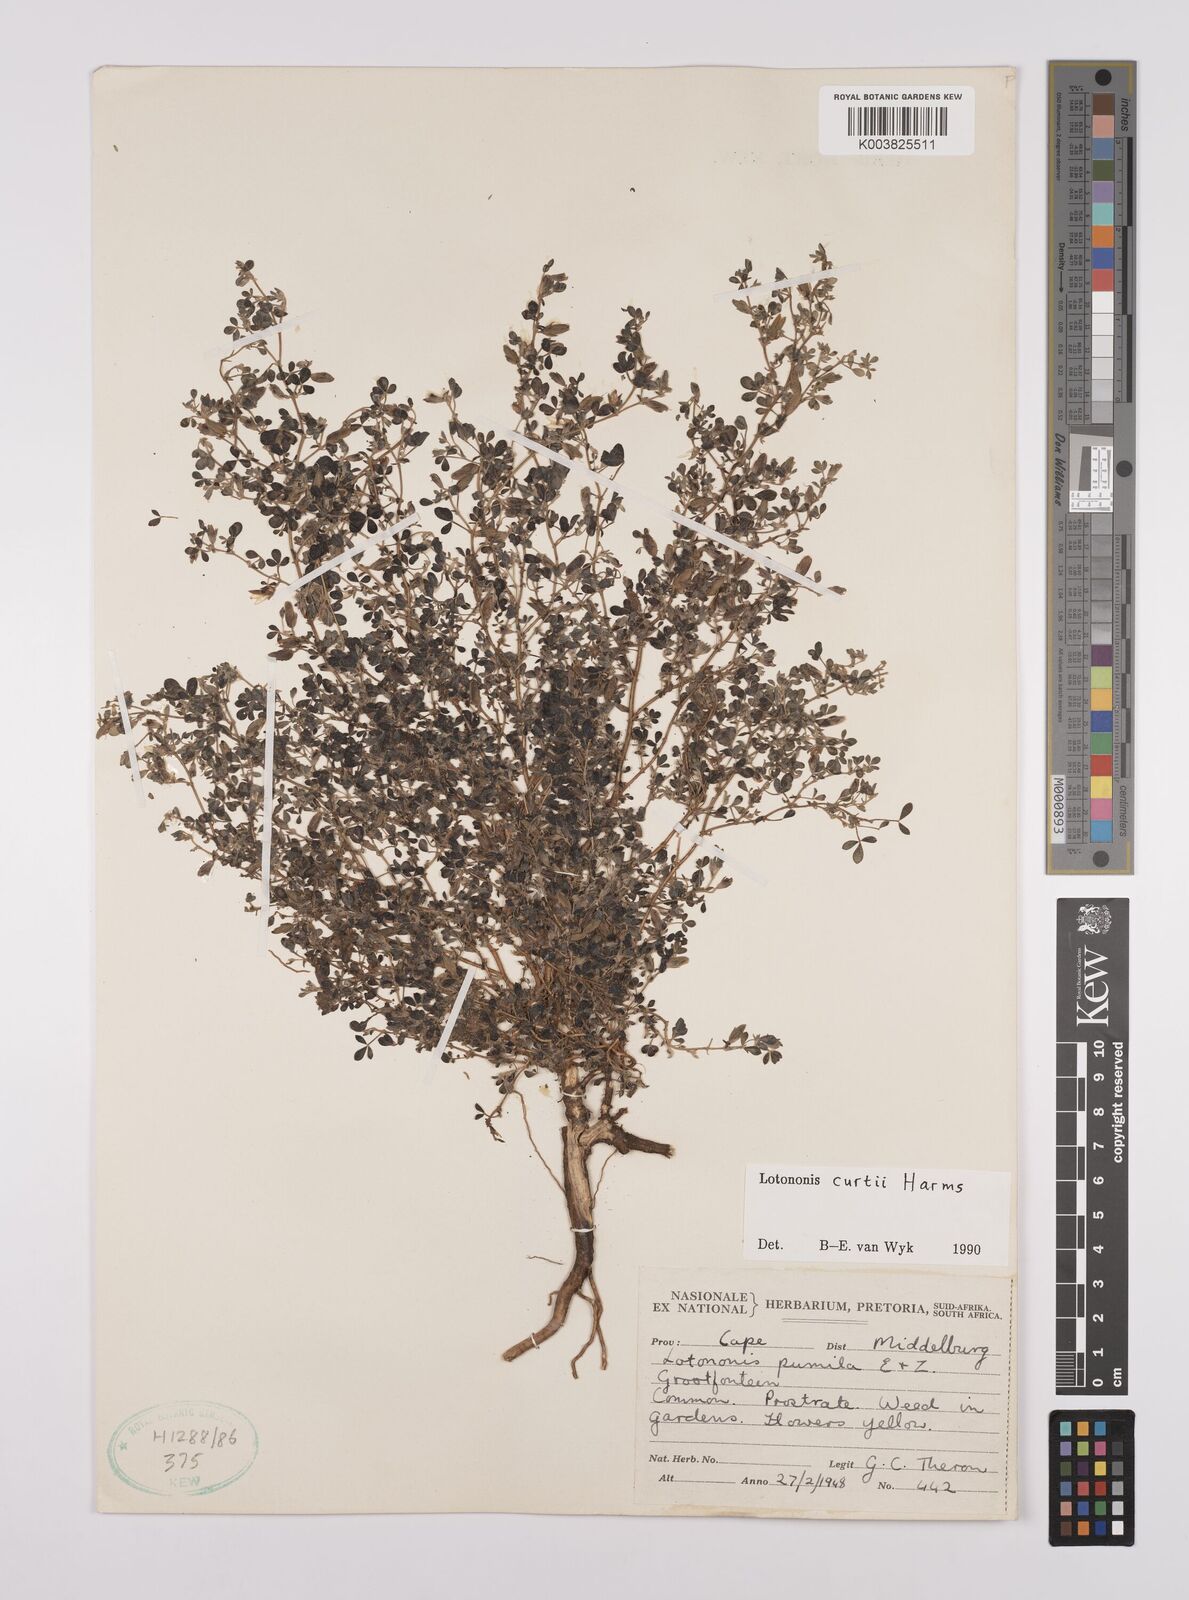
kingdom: Plantae
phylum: Tracheophyta
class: Magnoliopsida
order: Fabales
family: Fabaceae
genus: Lotononis
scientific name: Lotononis curtii
